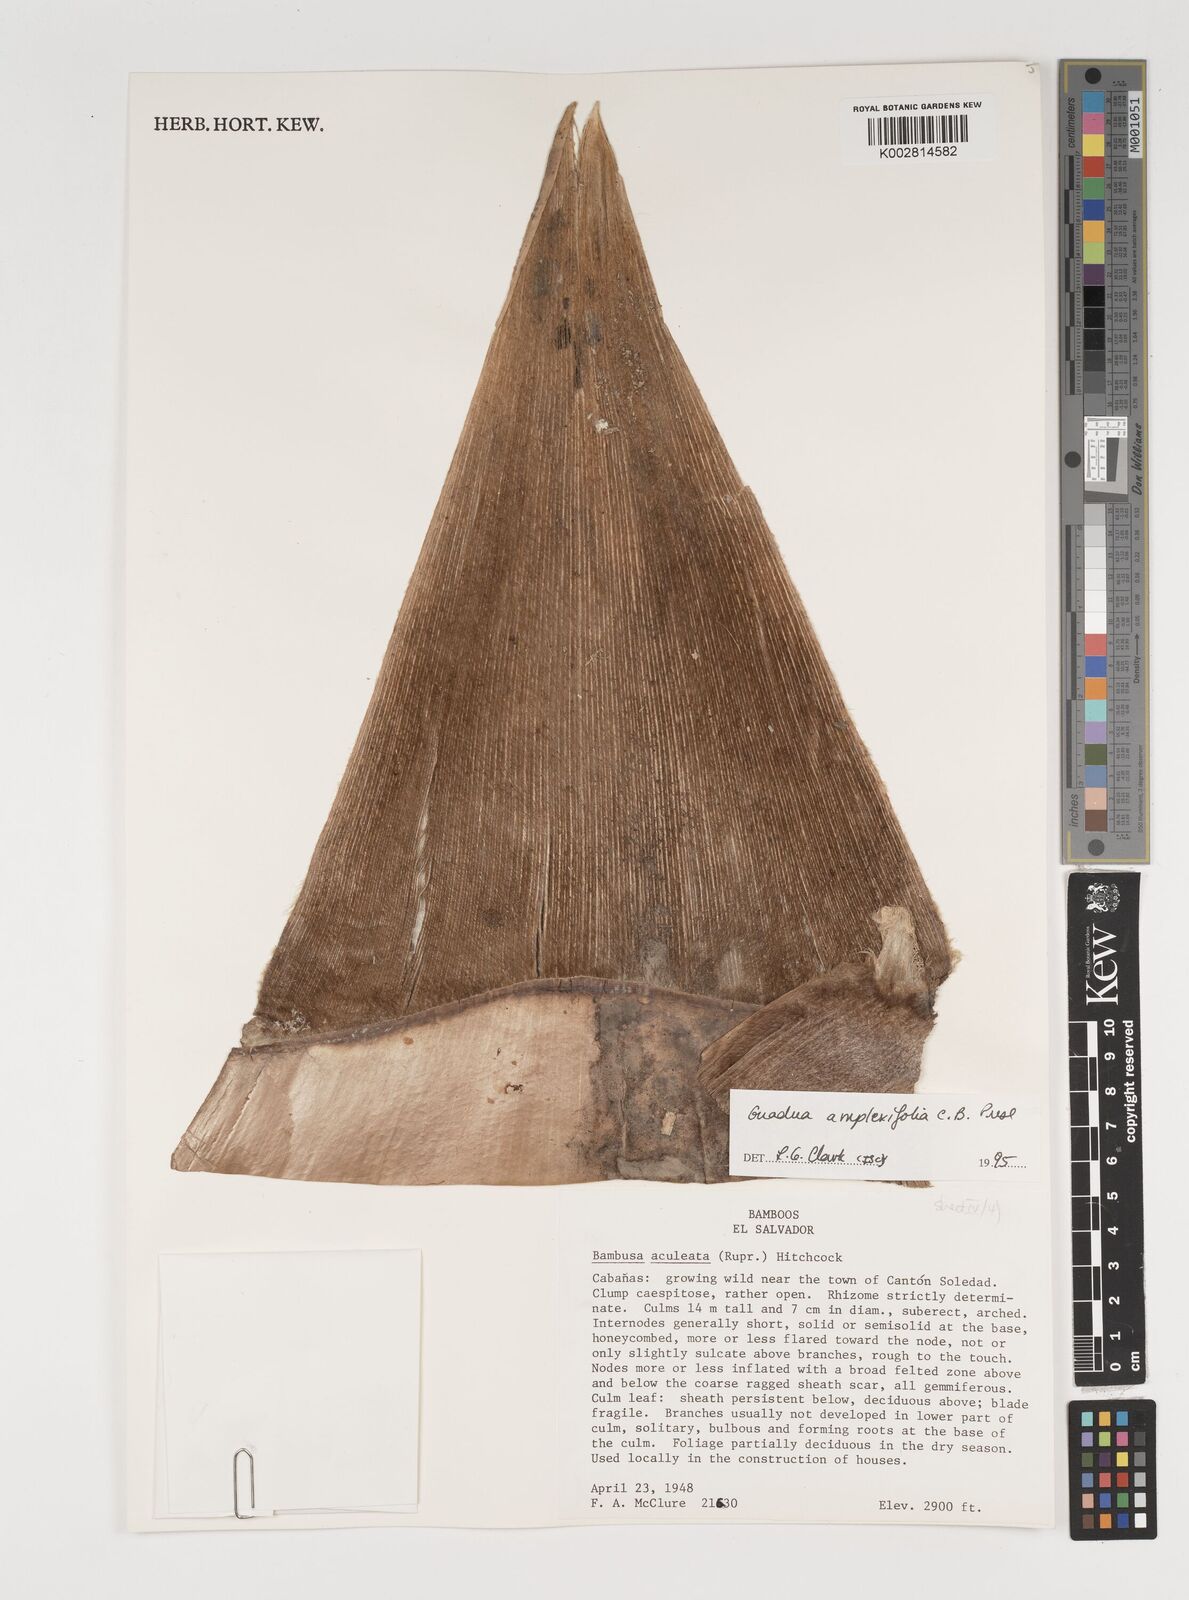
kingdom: Plantae
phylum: Tracheophyta
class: Liliopsida
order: Poales
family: Poaceae
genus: Guadua
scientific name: Guadua amplexifolia
